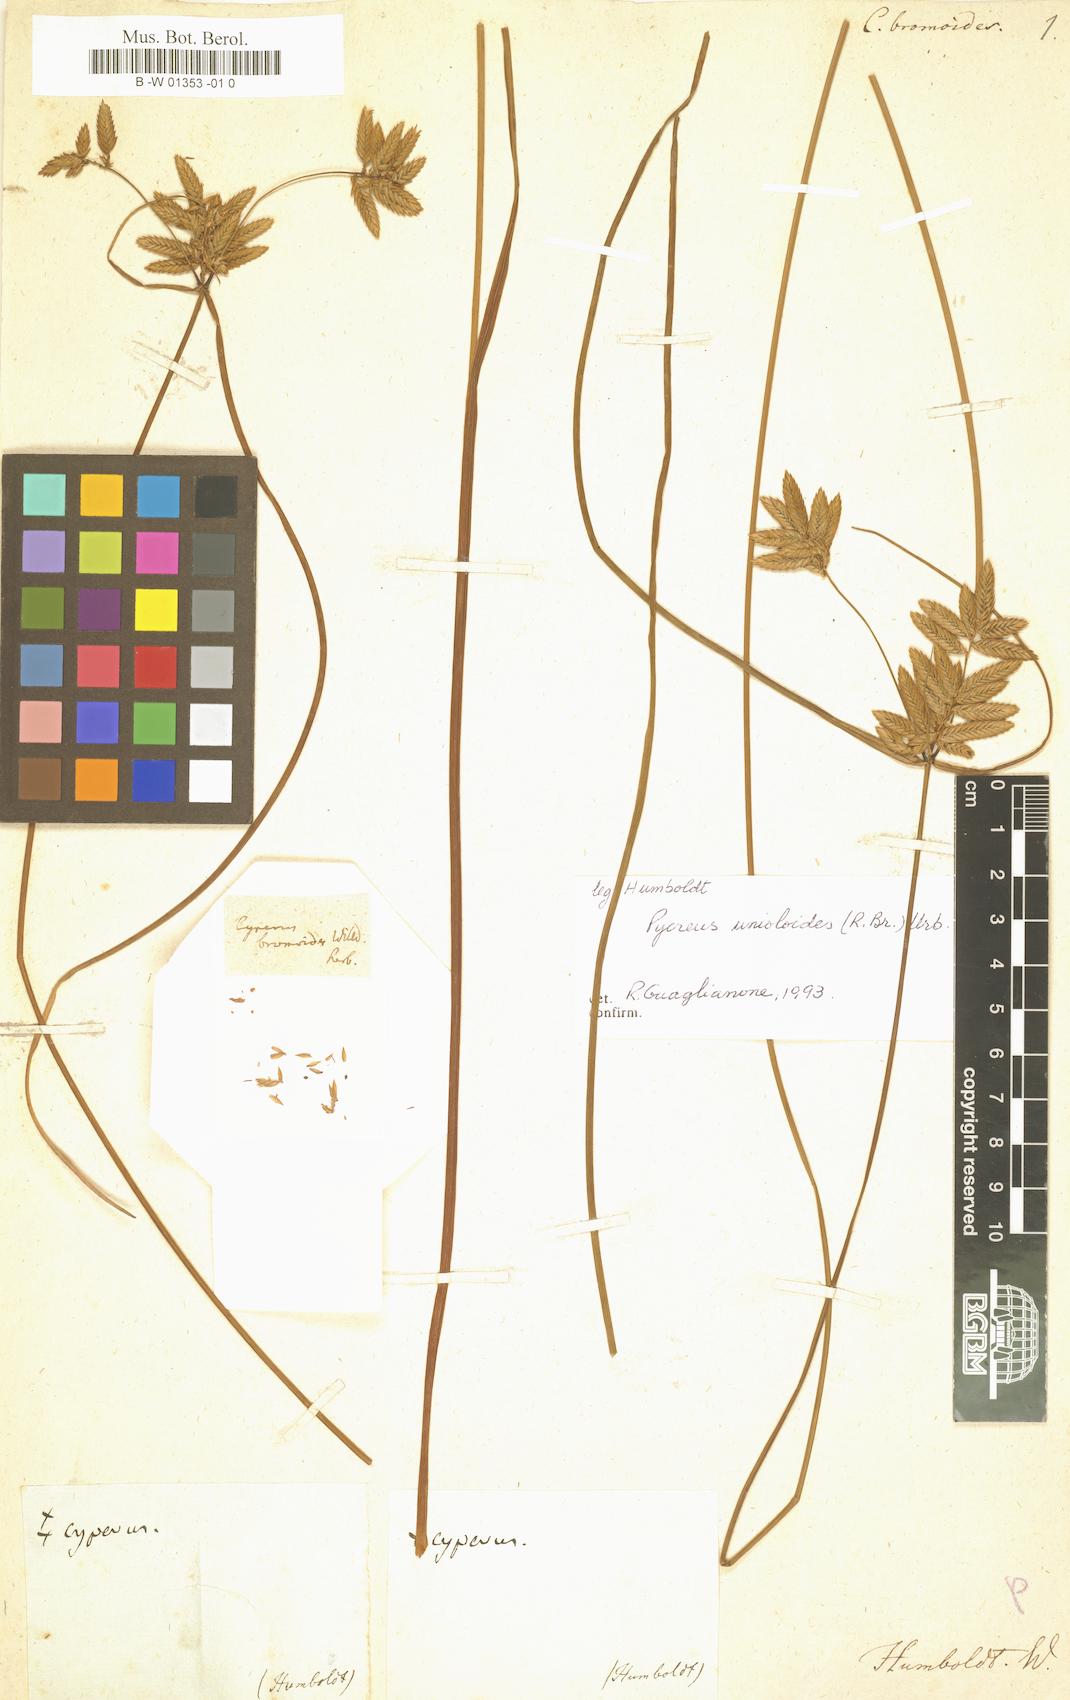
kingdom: Plantae
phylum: Tracheophyta
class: Liliopsida
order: Poales
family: Cyperaceae
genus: Cyperus
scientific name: Cyperus unioloides
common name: Uniola flatsedge
